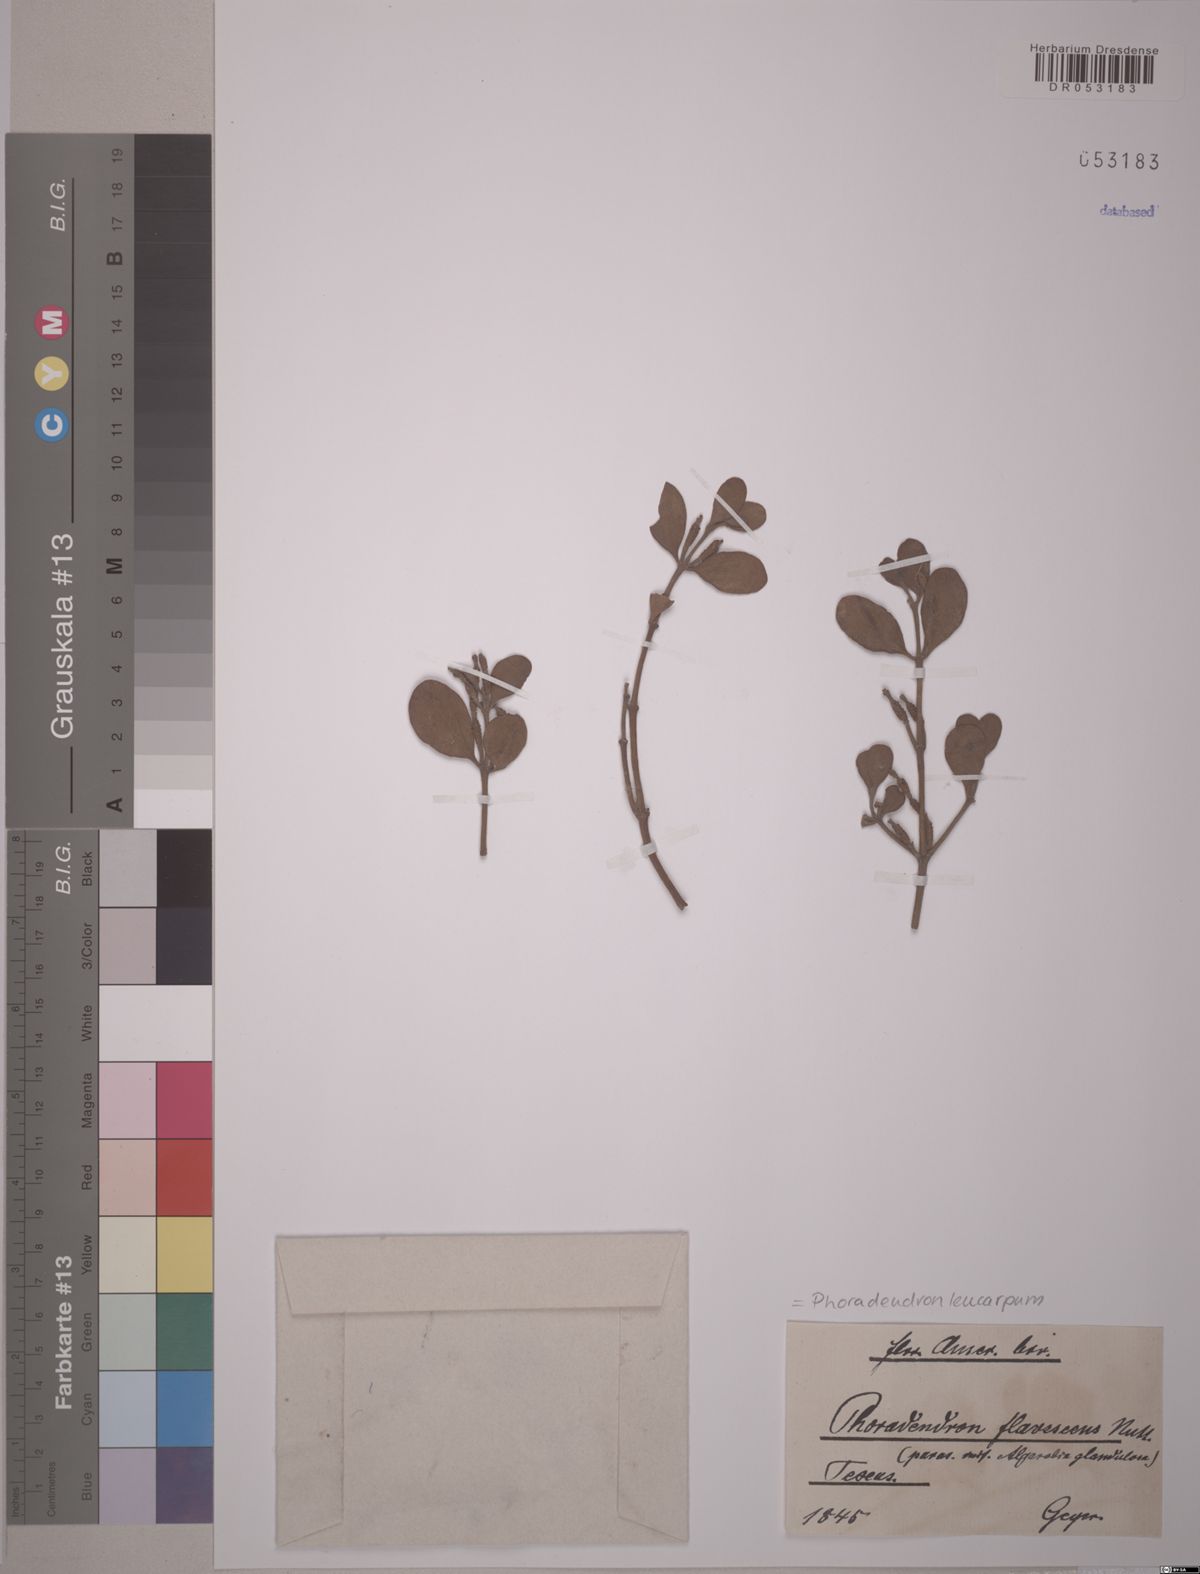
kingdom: Plantae
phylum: Tracheophyta
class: Magnoliopsida
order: Santalales
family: Viscaceae
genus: Phoradendron
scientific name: Phoradendron leucarpum
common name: Pacific mistletoe
